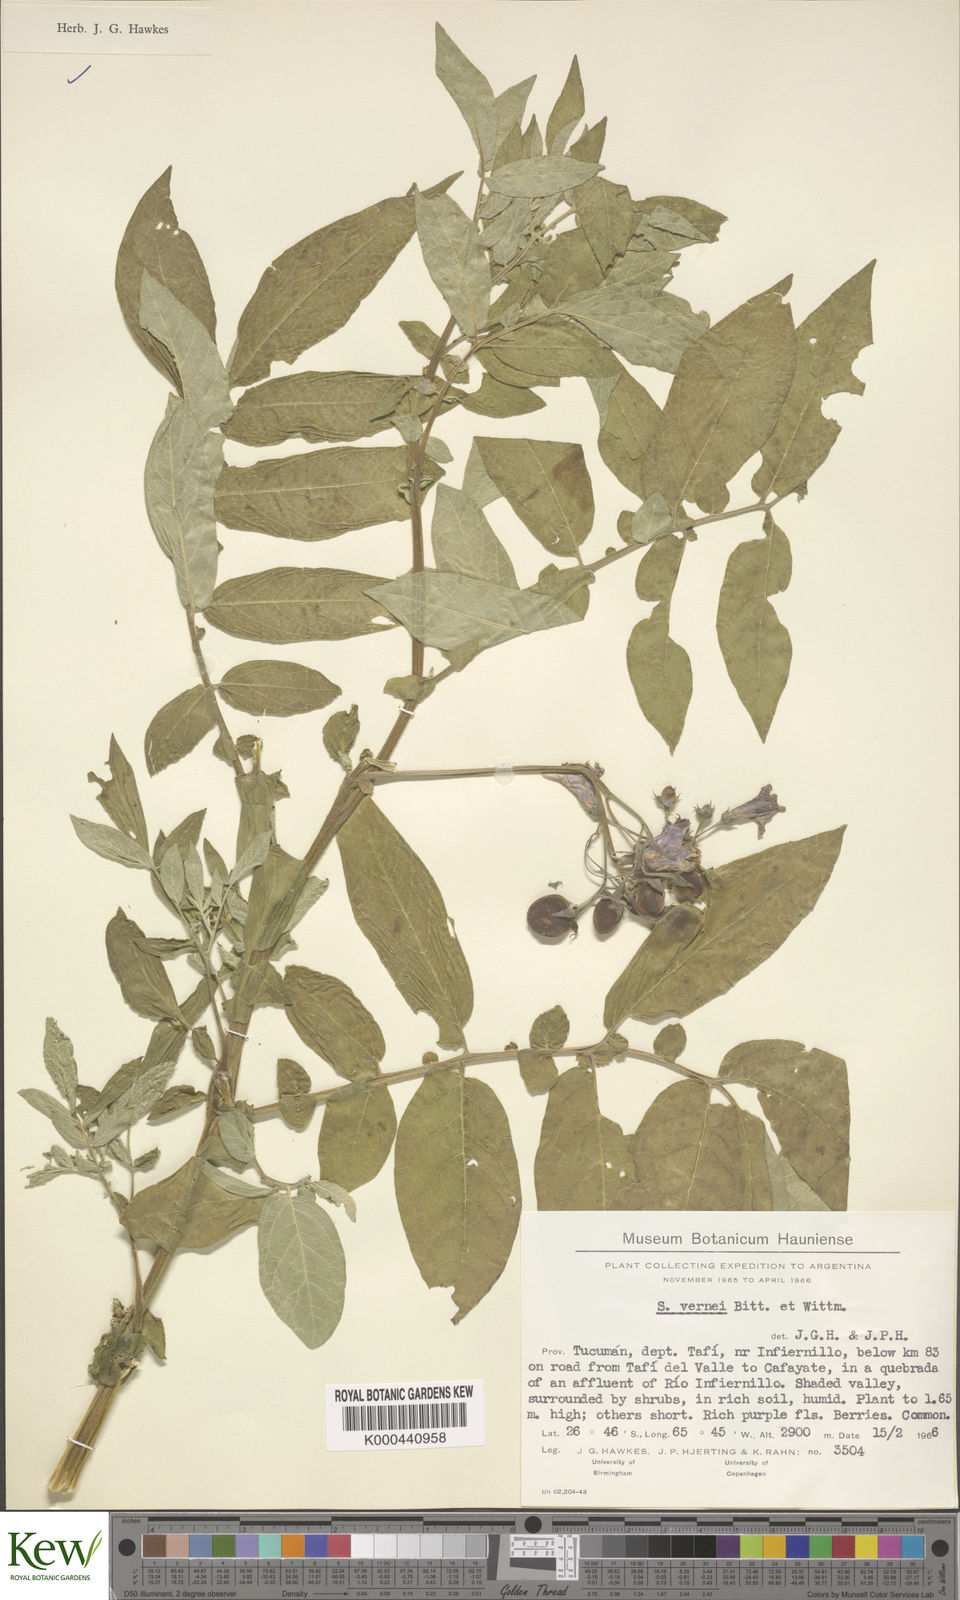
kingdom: Plantae
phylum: Tracheophyta
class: Magnoliopsida
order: Solanales
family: Solanaceae
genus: Solanum
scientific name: Solanum vernei
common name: Purple potato
